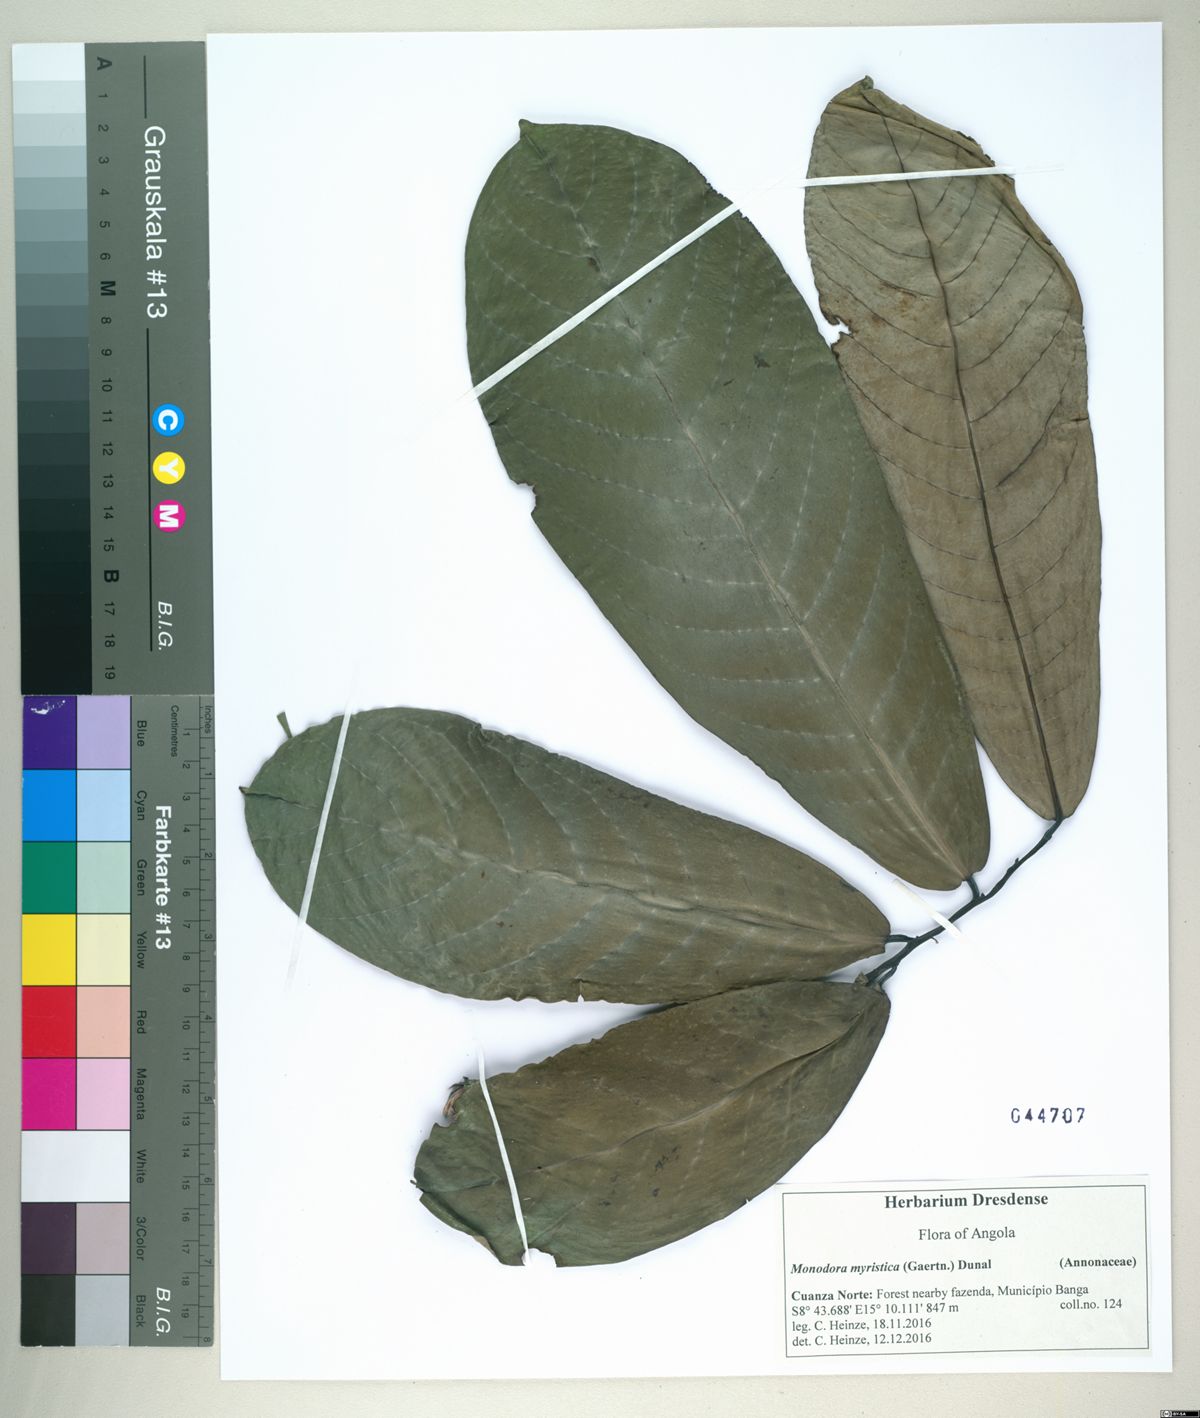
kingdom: Plantae
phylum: Tracheophyta
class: Magnoliopsida
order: Magnoliales
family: Annonaceae
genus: Monodora
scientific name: Monodora myristica
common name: African nutmeg
